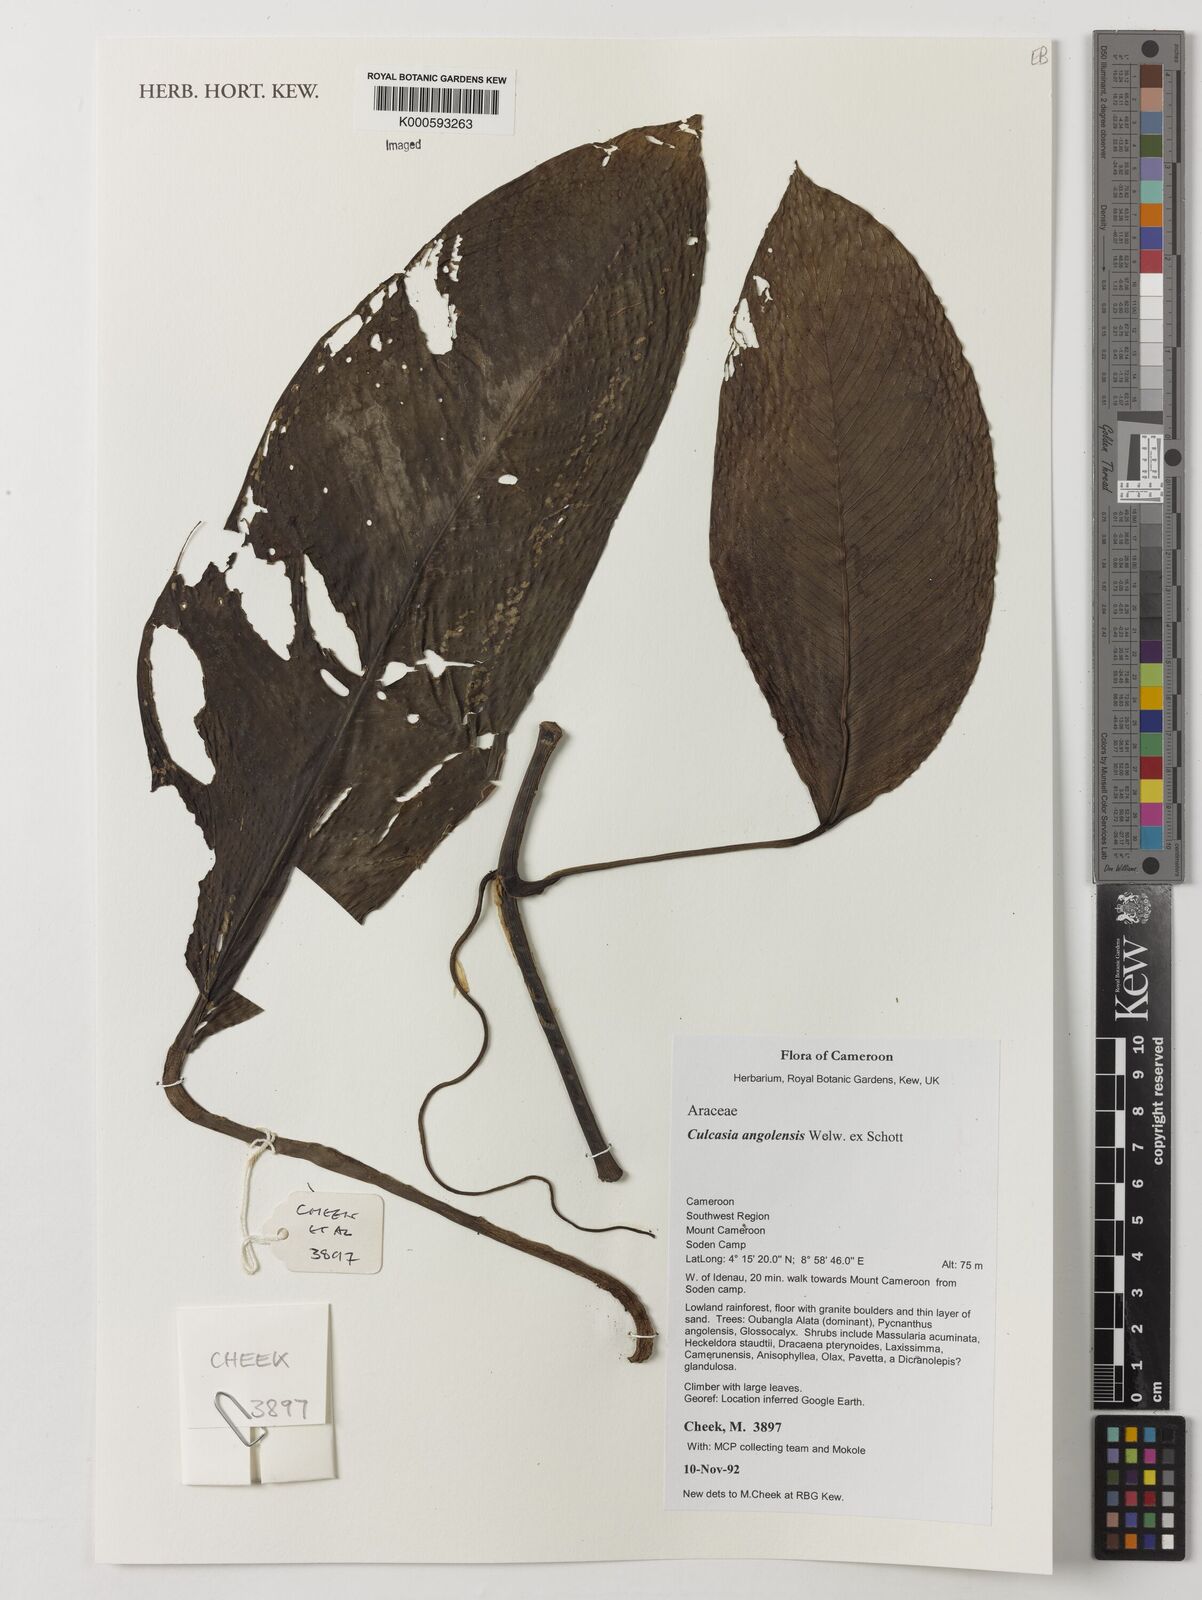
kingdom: Plantae
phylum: Tracheophyta
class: Liliopsida
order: Alismatales
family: Araceae
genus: Culcasia
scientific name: Culcasia angolensis
